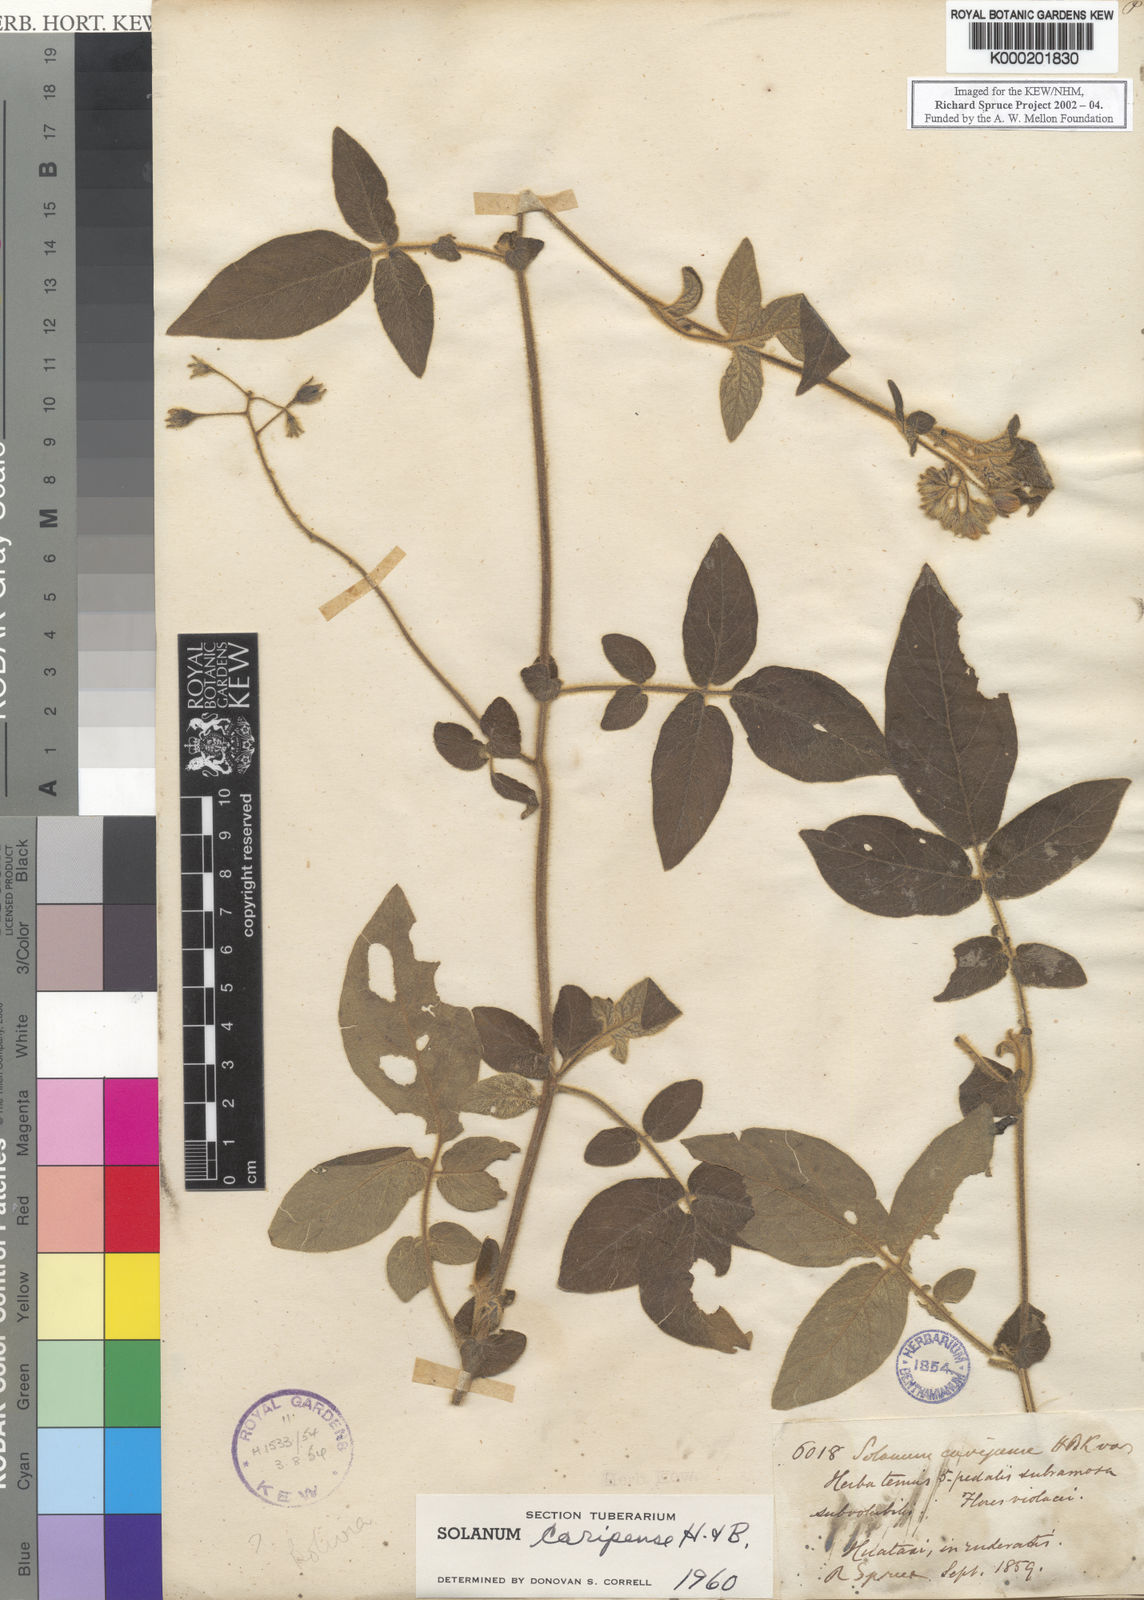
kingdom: Plantae
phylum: Tracheophyta
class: Magnoliopsida
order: Solanales
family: Solanaceae
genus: Solanum
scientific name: Solanum caripense
